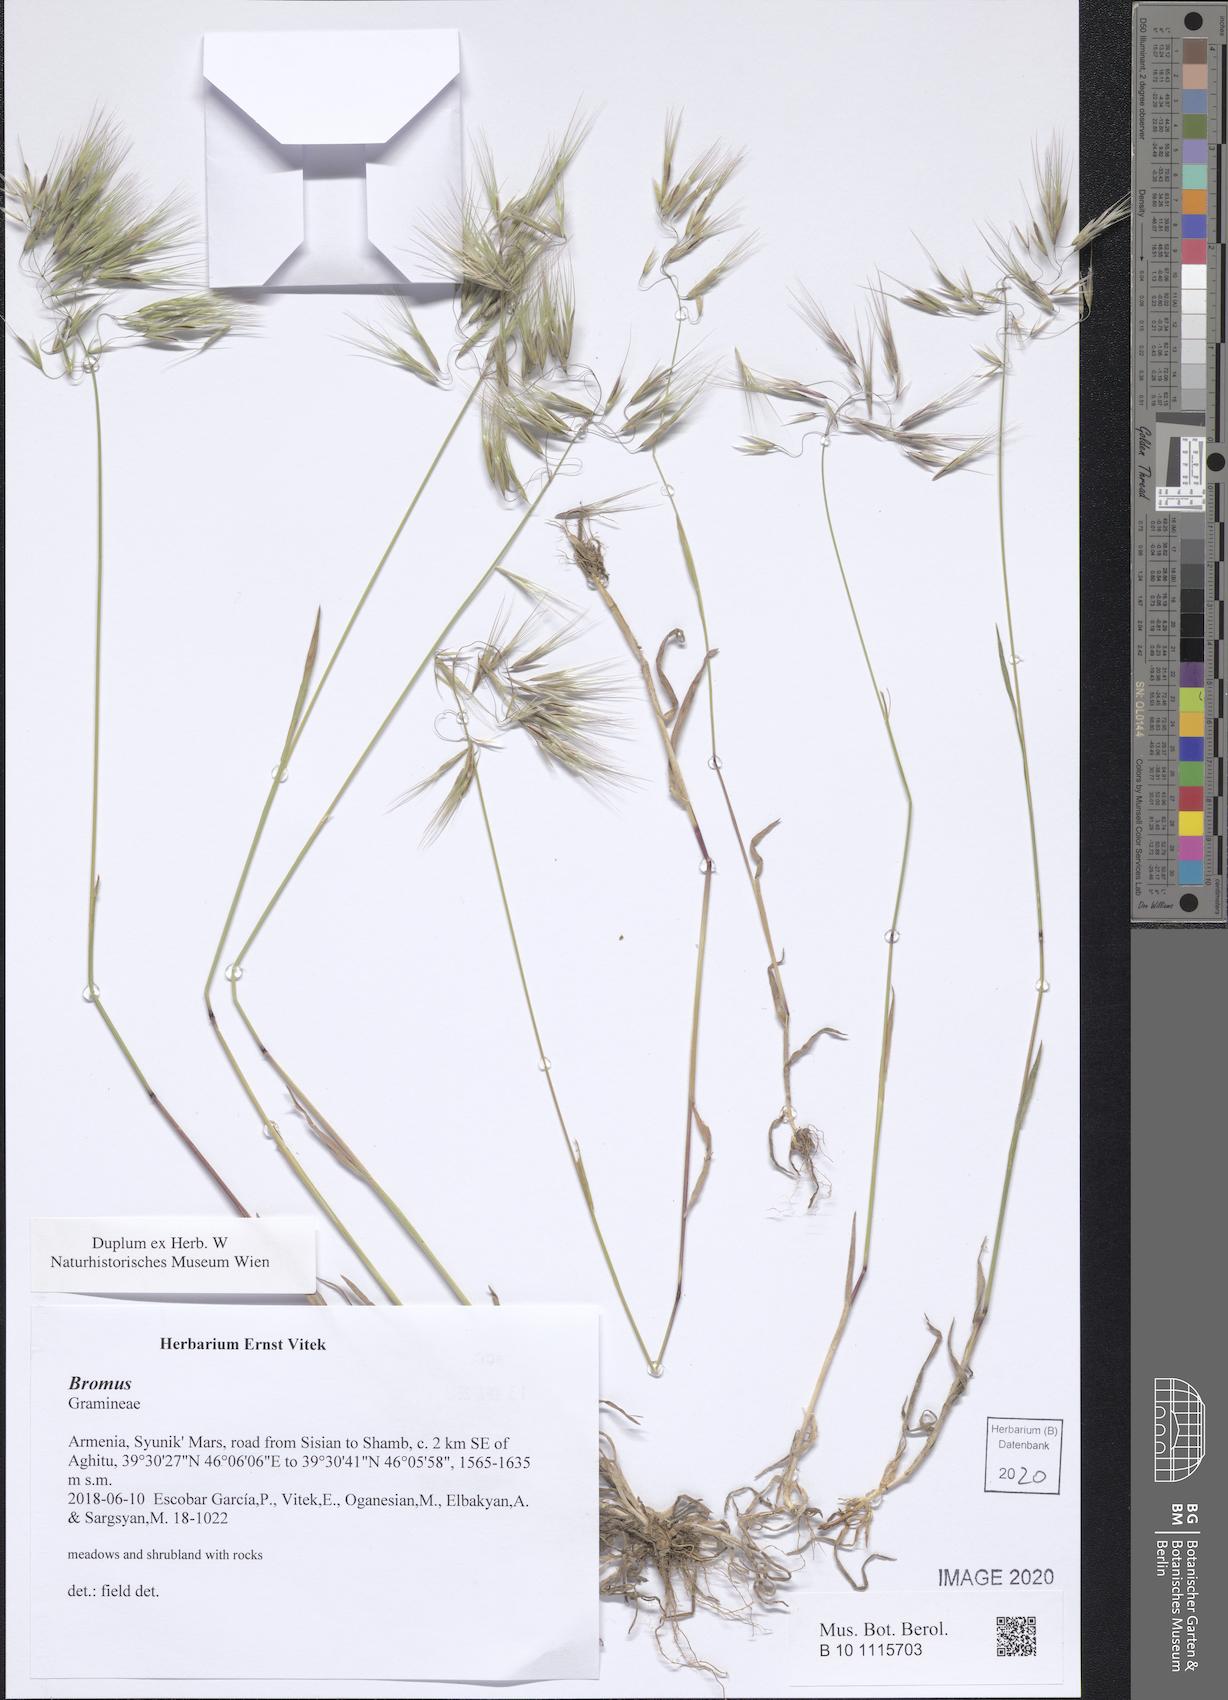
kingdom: Plantae
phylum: Tracheophyta
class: Liliopsida
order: Poales
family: Poaceae
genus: Bromus
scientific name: Bromus
